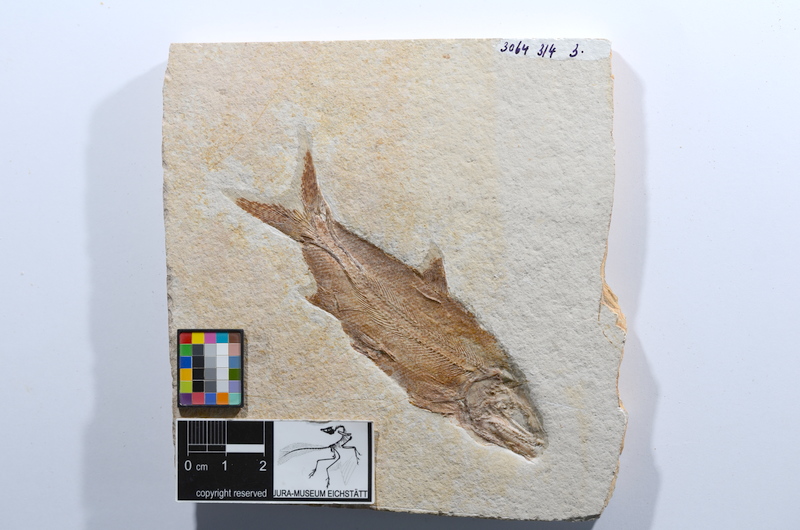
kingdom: Animalia
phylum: Chordata
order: Amiiformes
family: Caturidae
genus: Caturus
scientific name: Caturus furcatus
